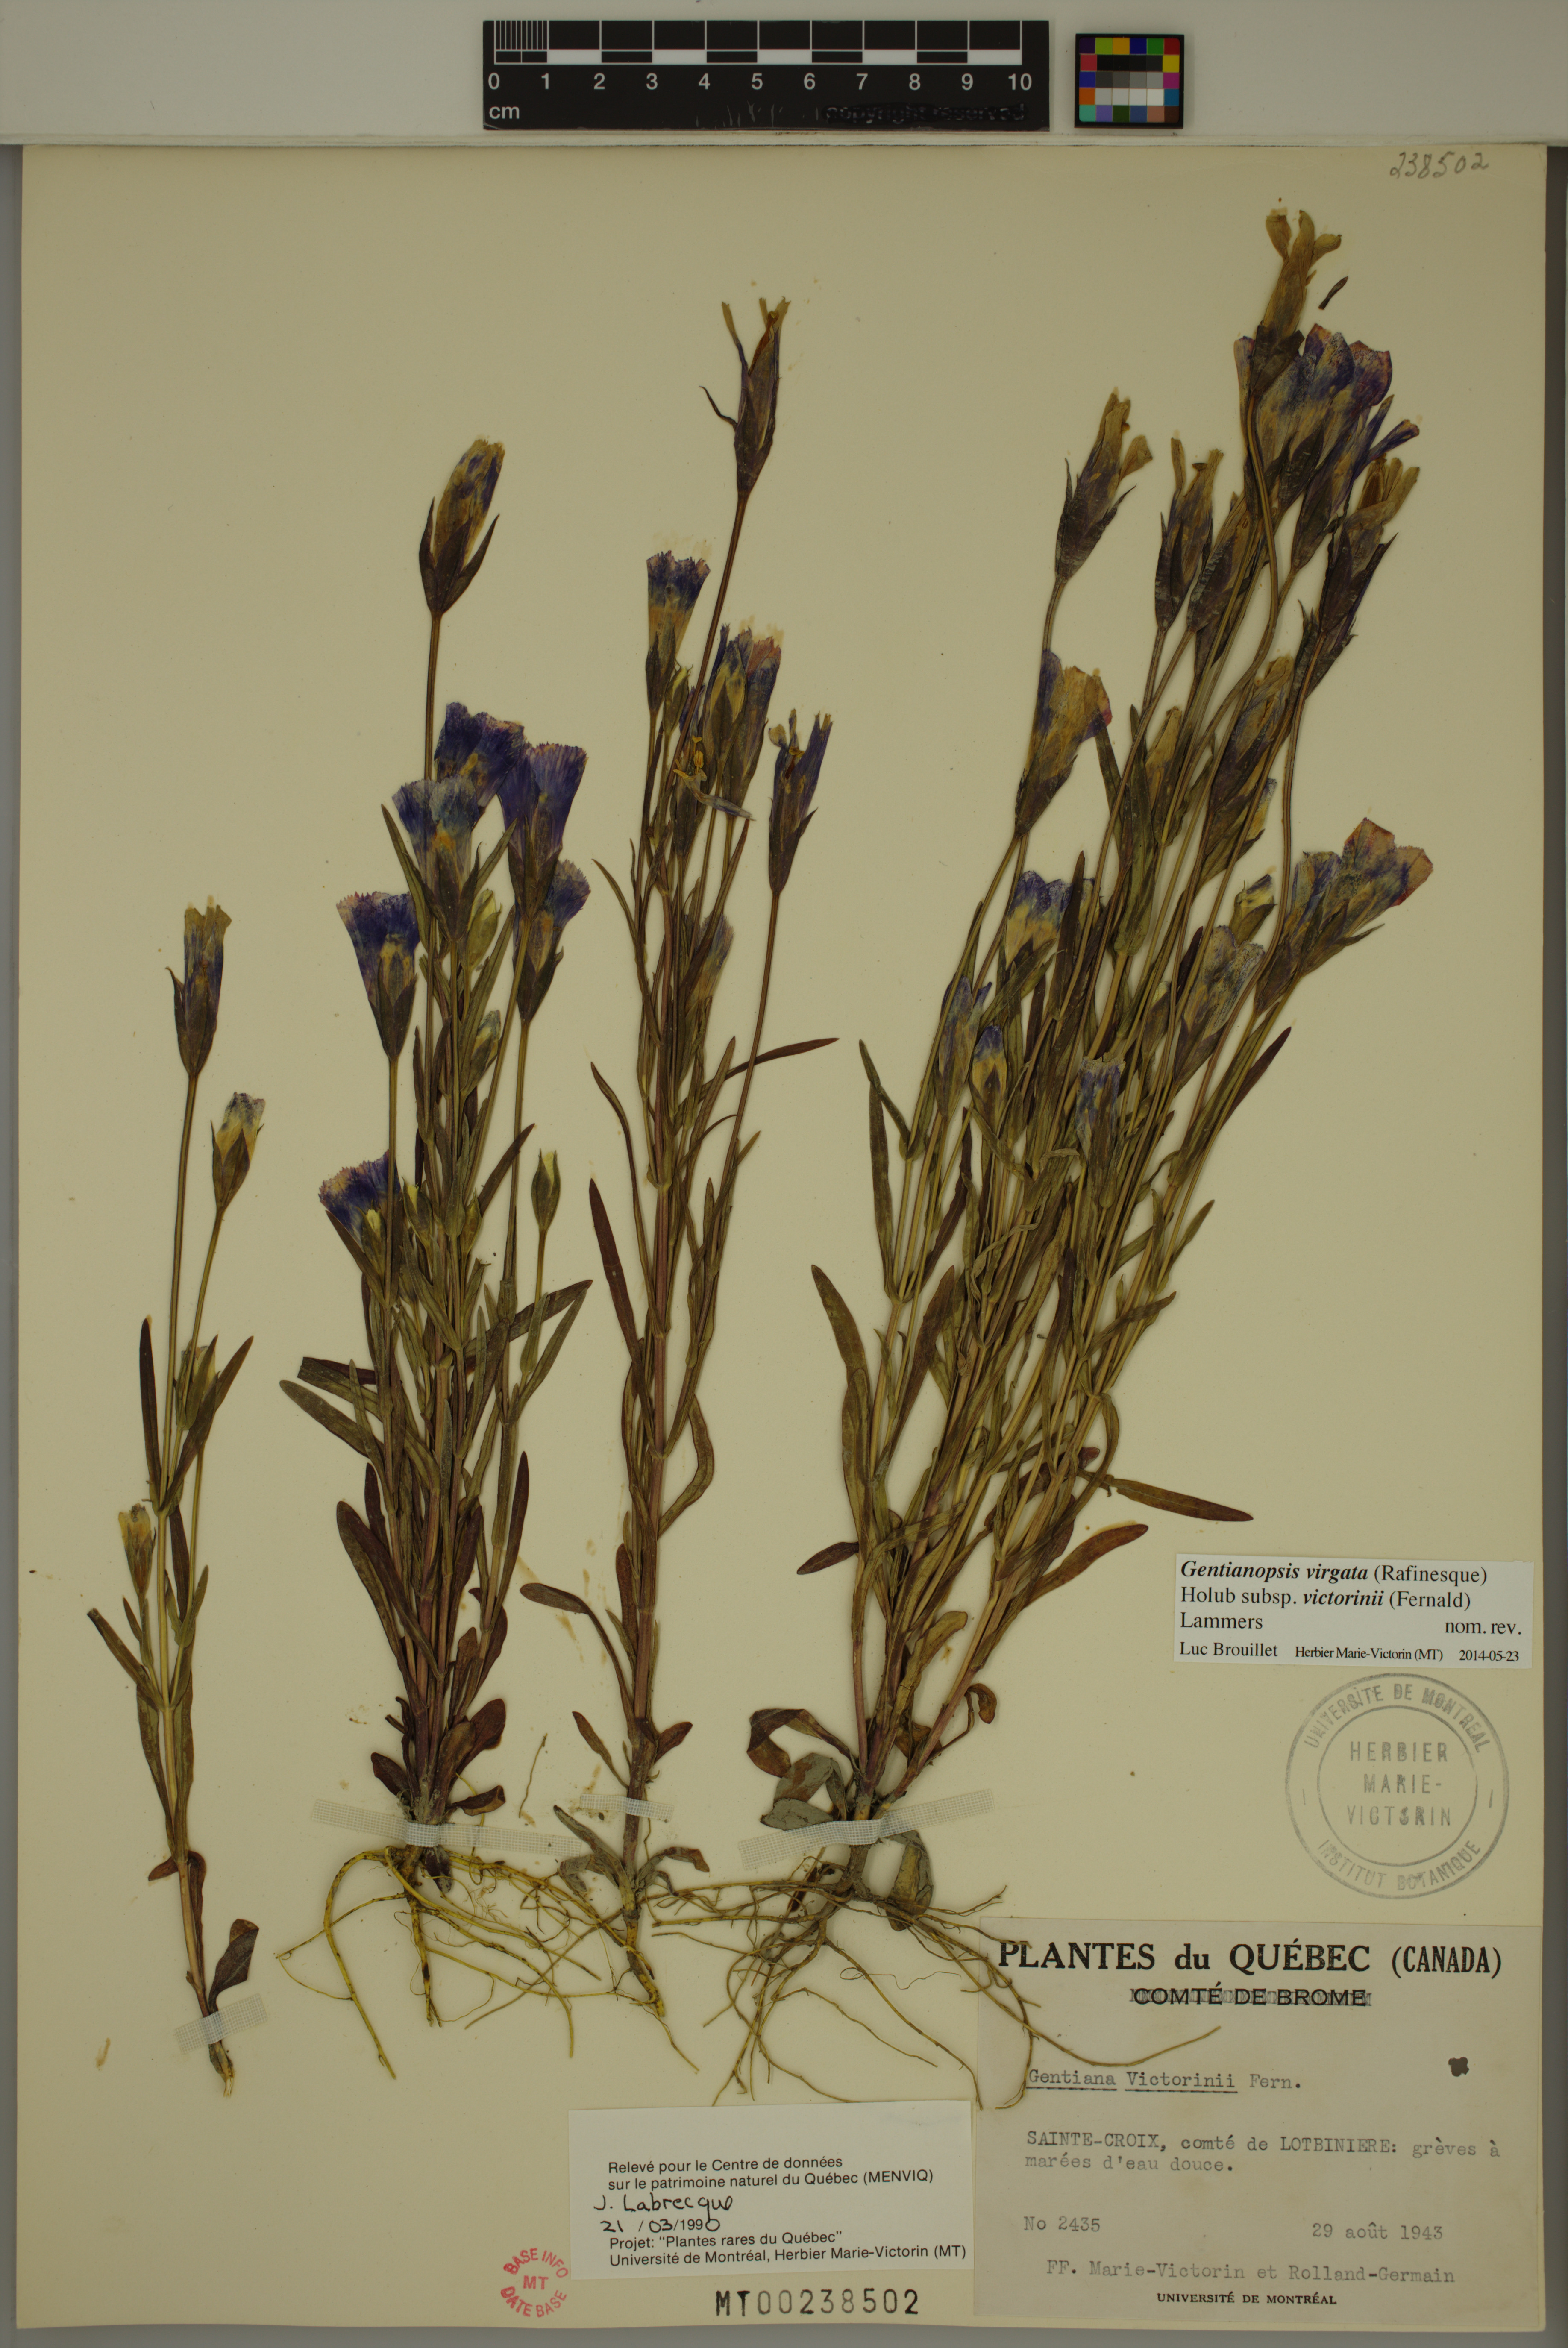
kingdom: Plantae
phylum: Tracheophyta
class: Magnoliopsida
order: Gentianales
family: Gentianaceae
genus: Gentianopsis
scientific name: Gentianopsis victorinii
